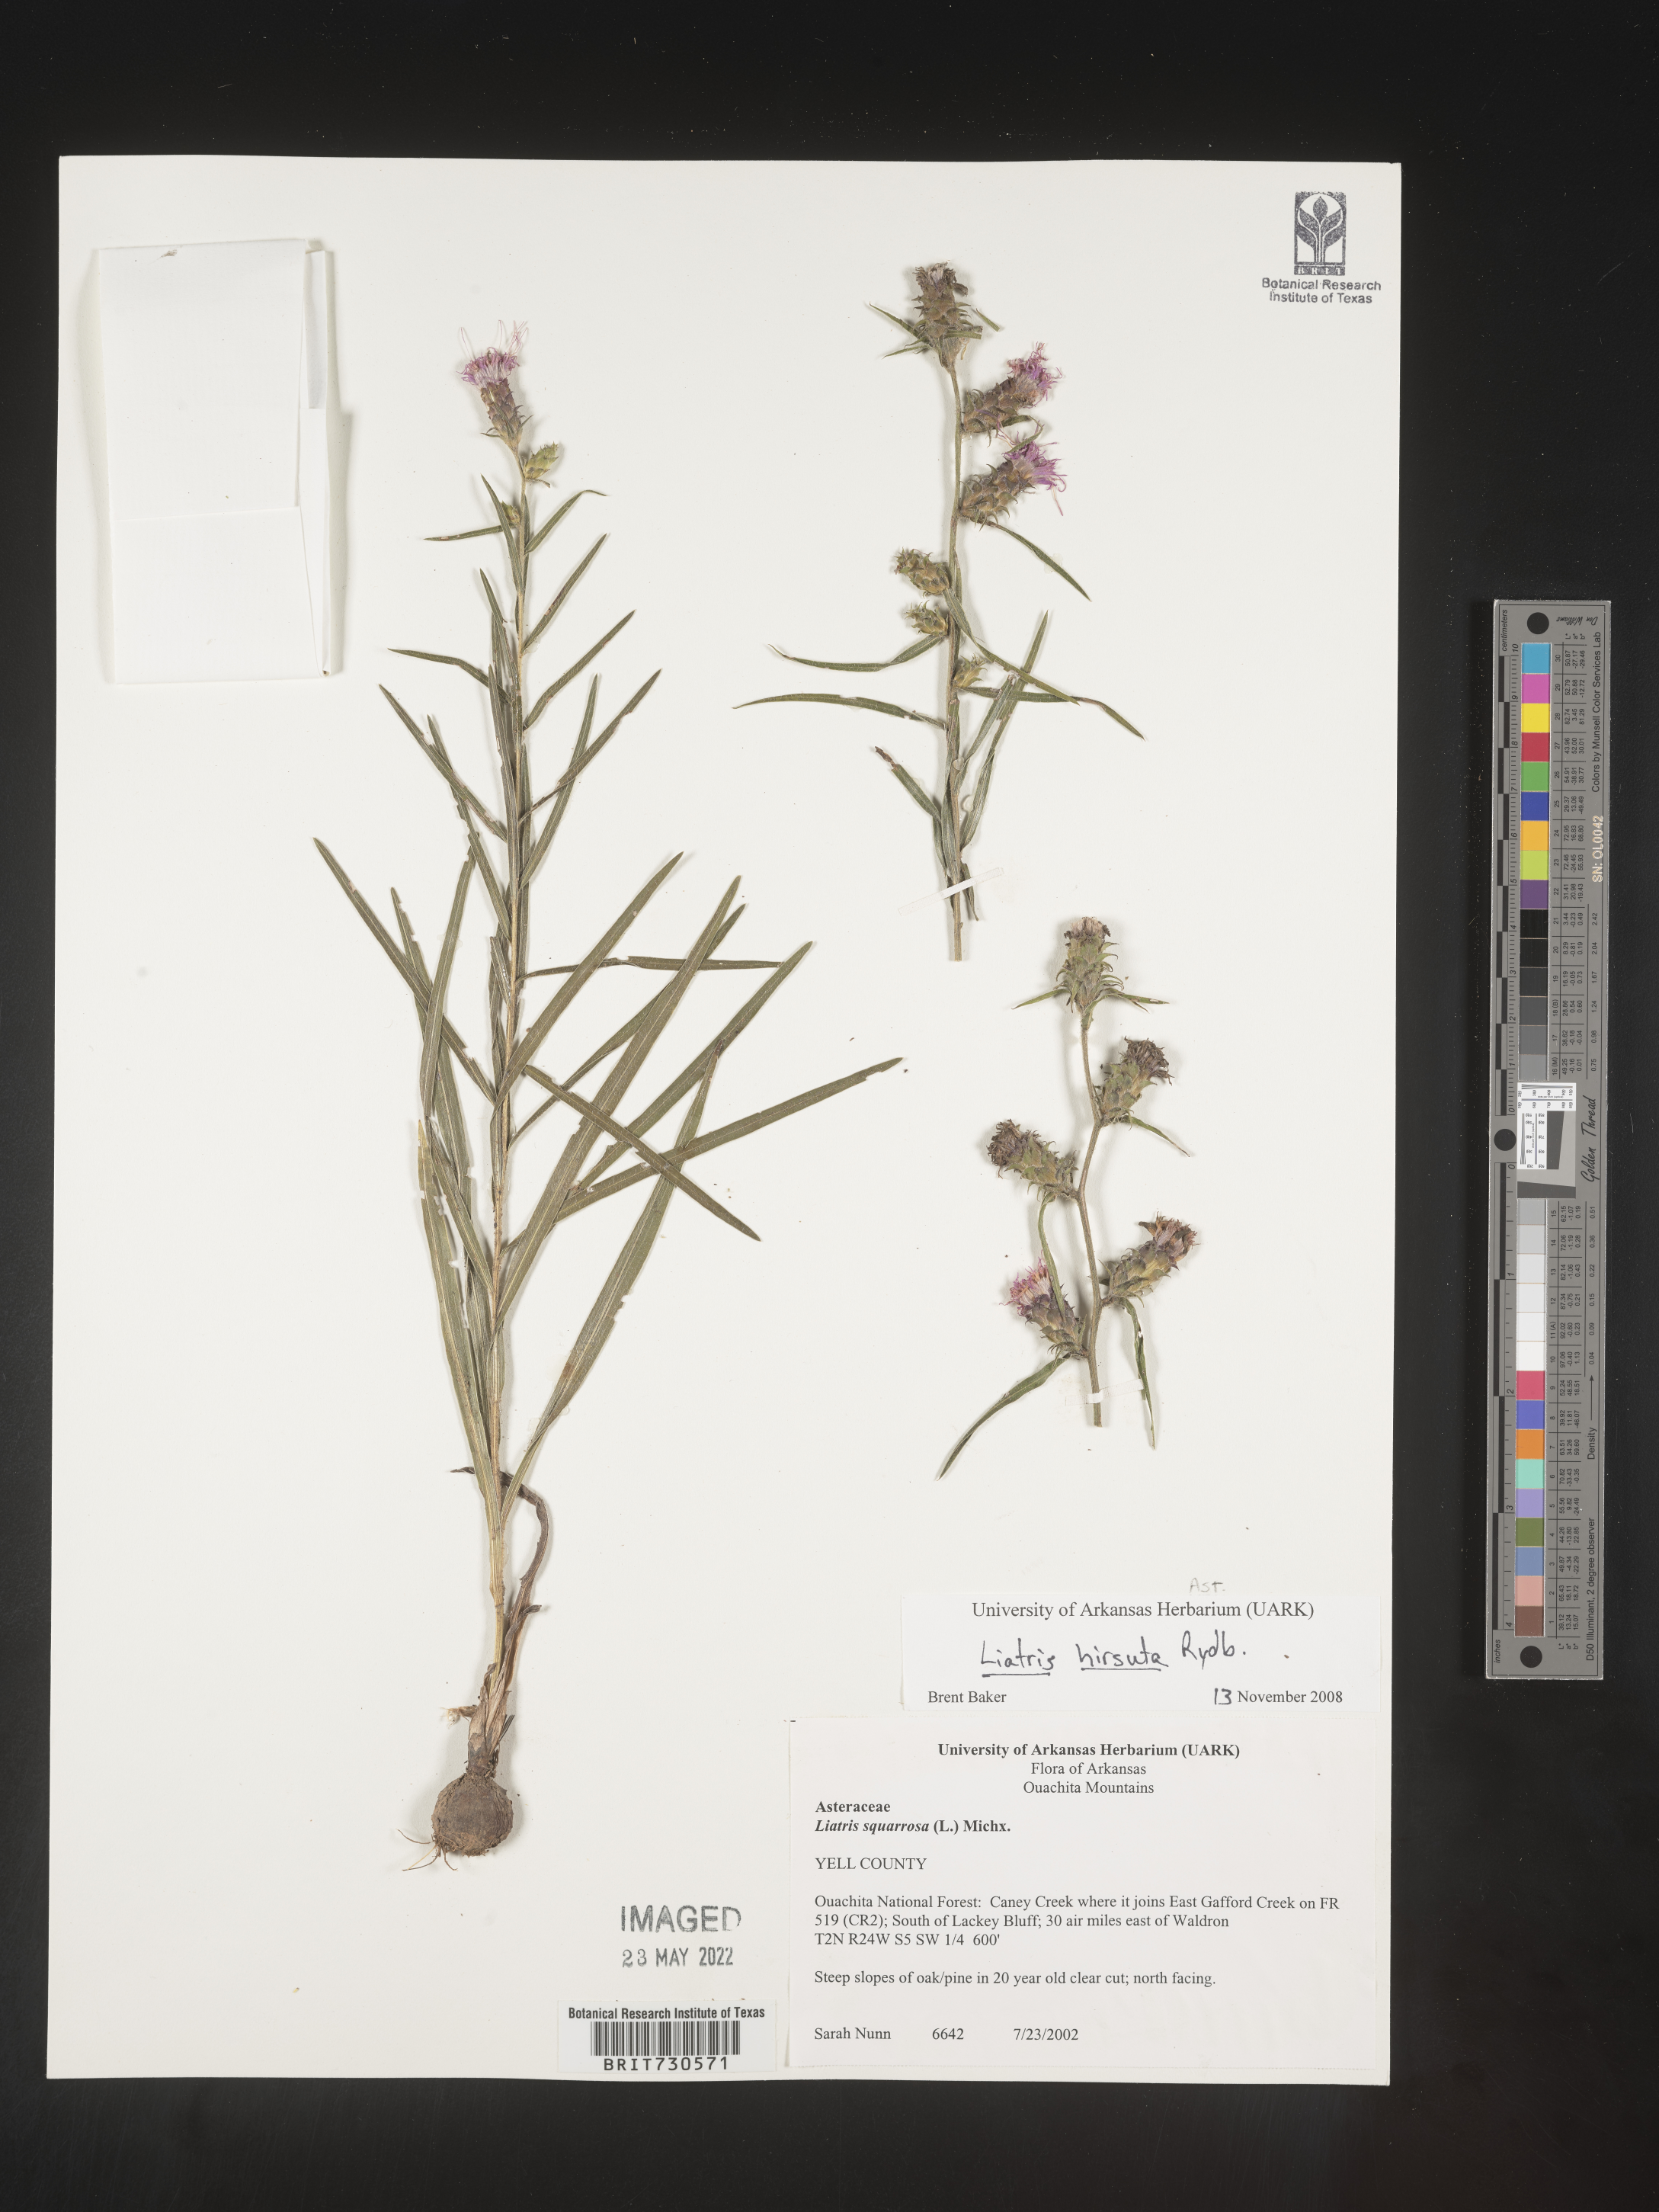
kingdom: Plantae
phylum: Tracheophyta
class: Magnoliopsida
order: Asterales
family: Asteraceae
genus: Liatris
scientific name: Liatris hirsuta
